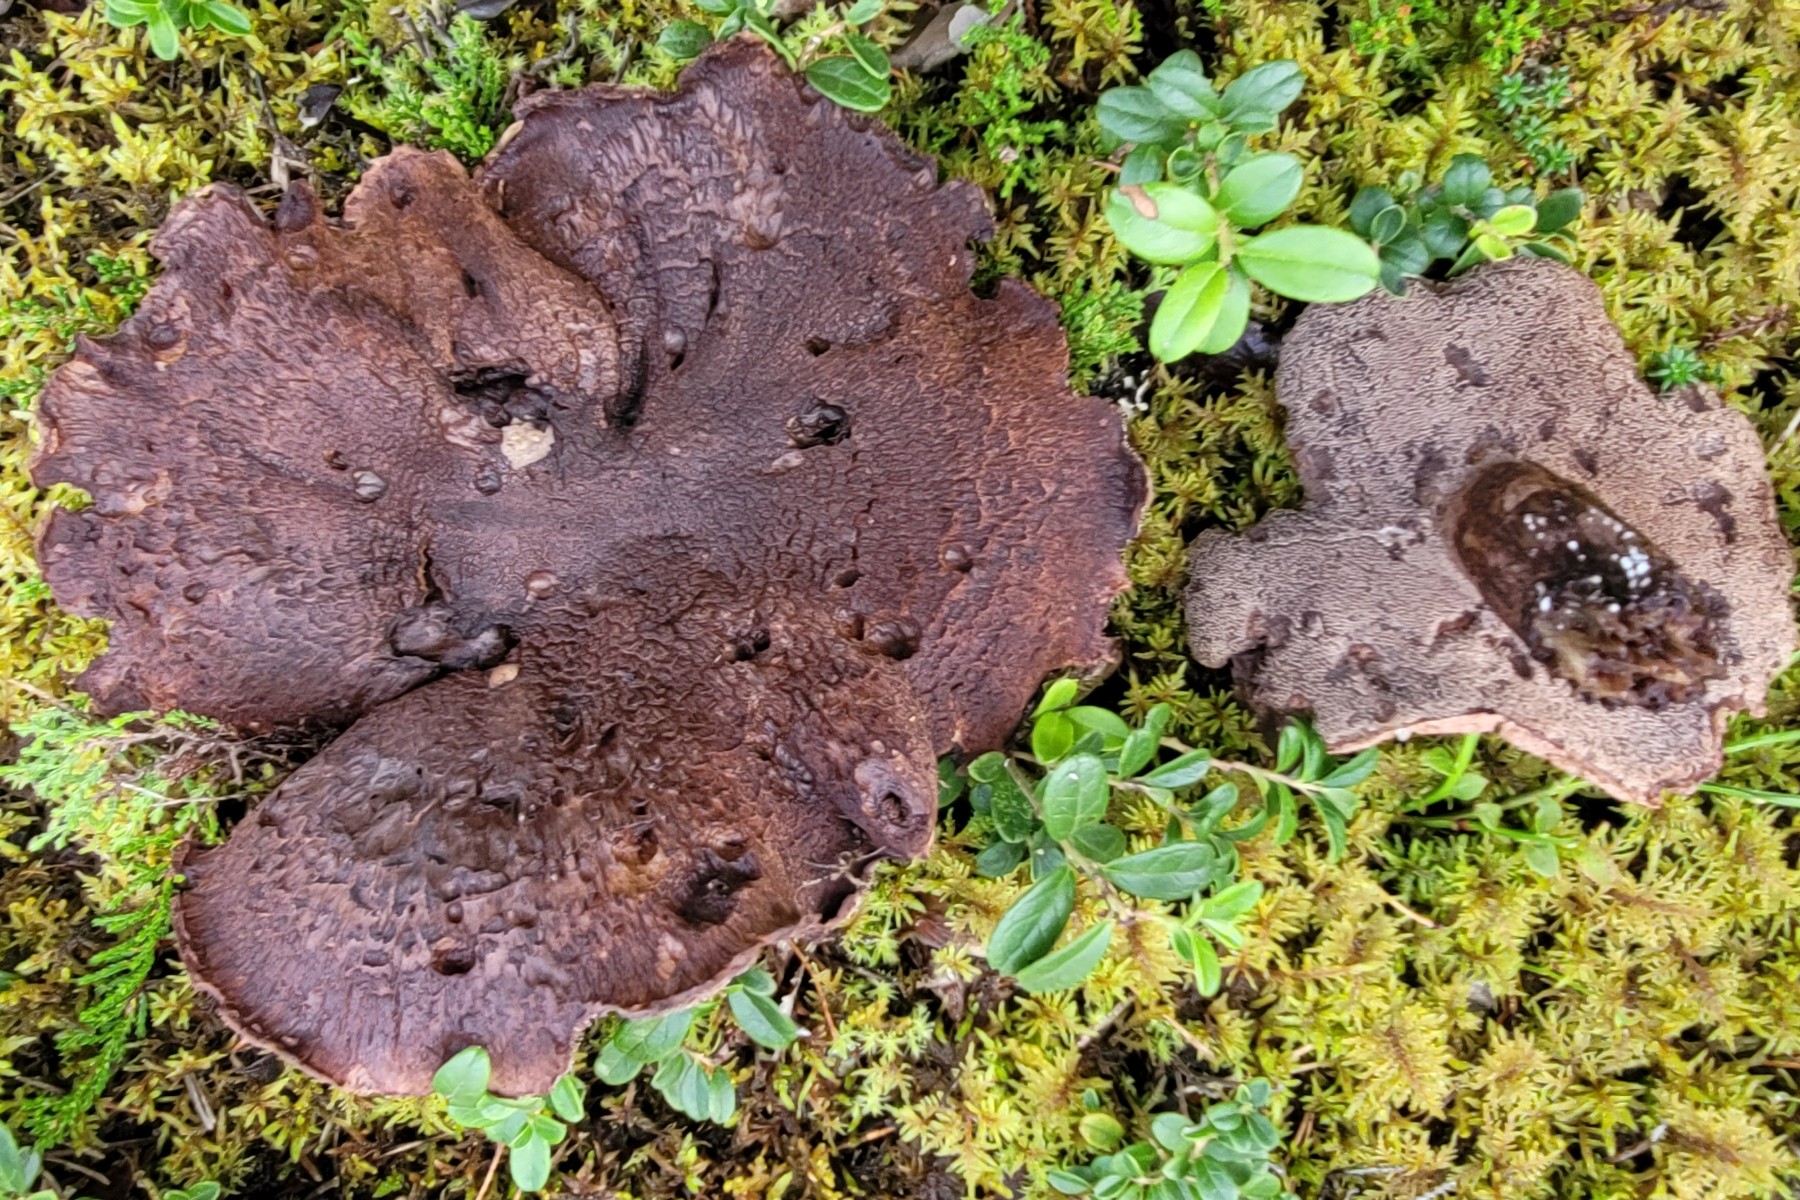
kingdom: Fungi
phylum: Basidiomycota
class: Agaricomycetes
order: Thelephorales
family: Bankeraceae
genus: Hydnellum
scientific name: Hydnellum scabrosum
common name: blåfodet korkpigsvamp
